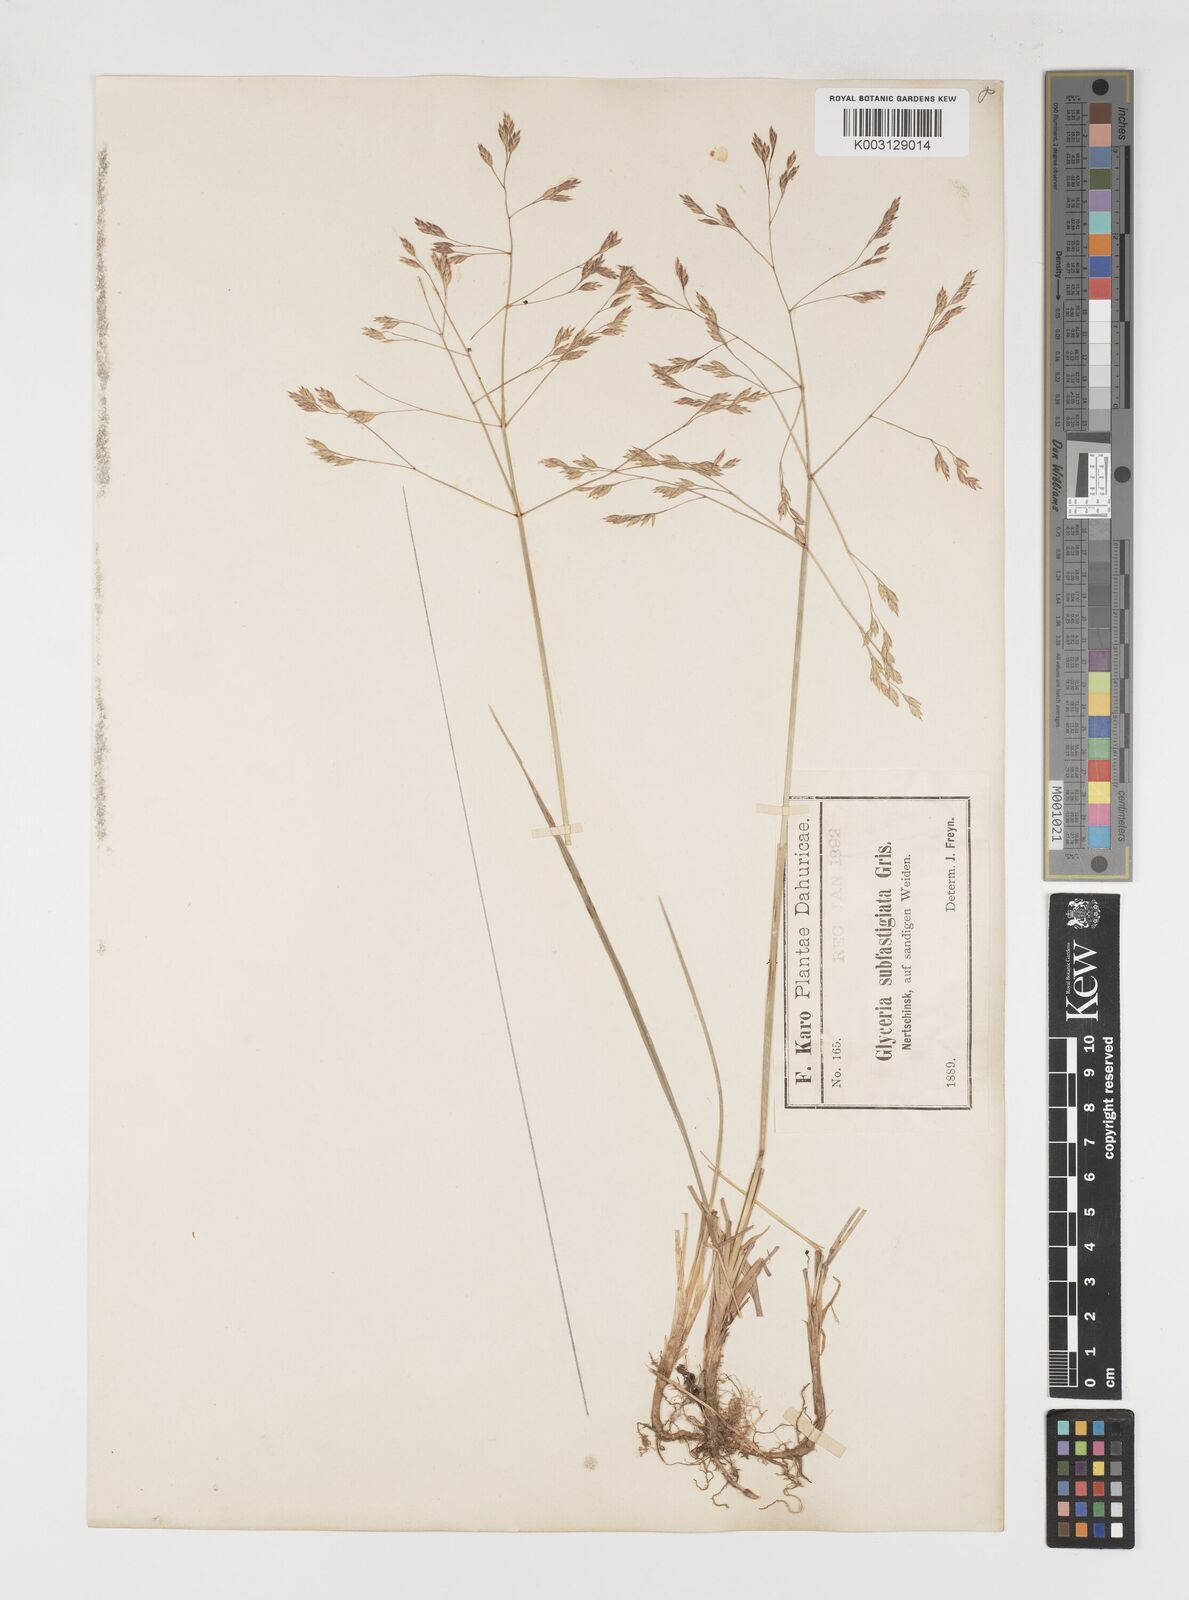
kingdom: Plantae
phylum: Tracheophyta
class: Liliopsida
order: Poales
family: Poaceae
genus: Arctopoa
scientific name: Arctopoa subfastigiata
